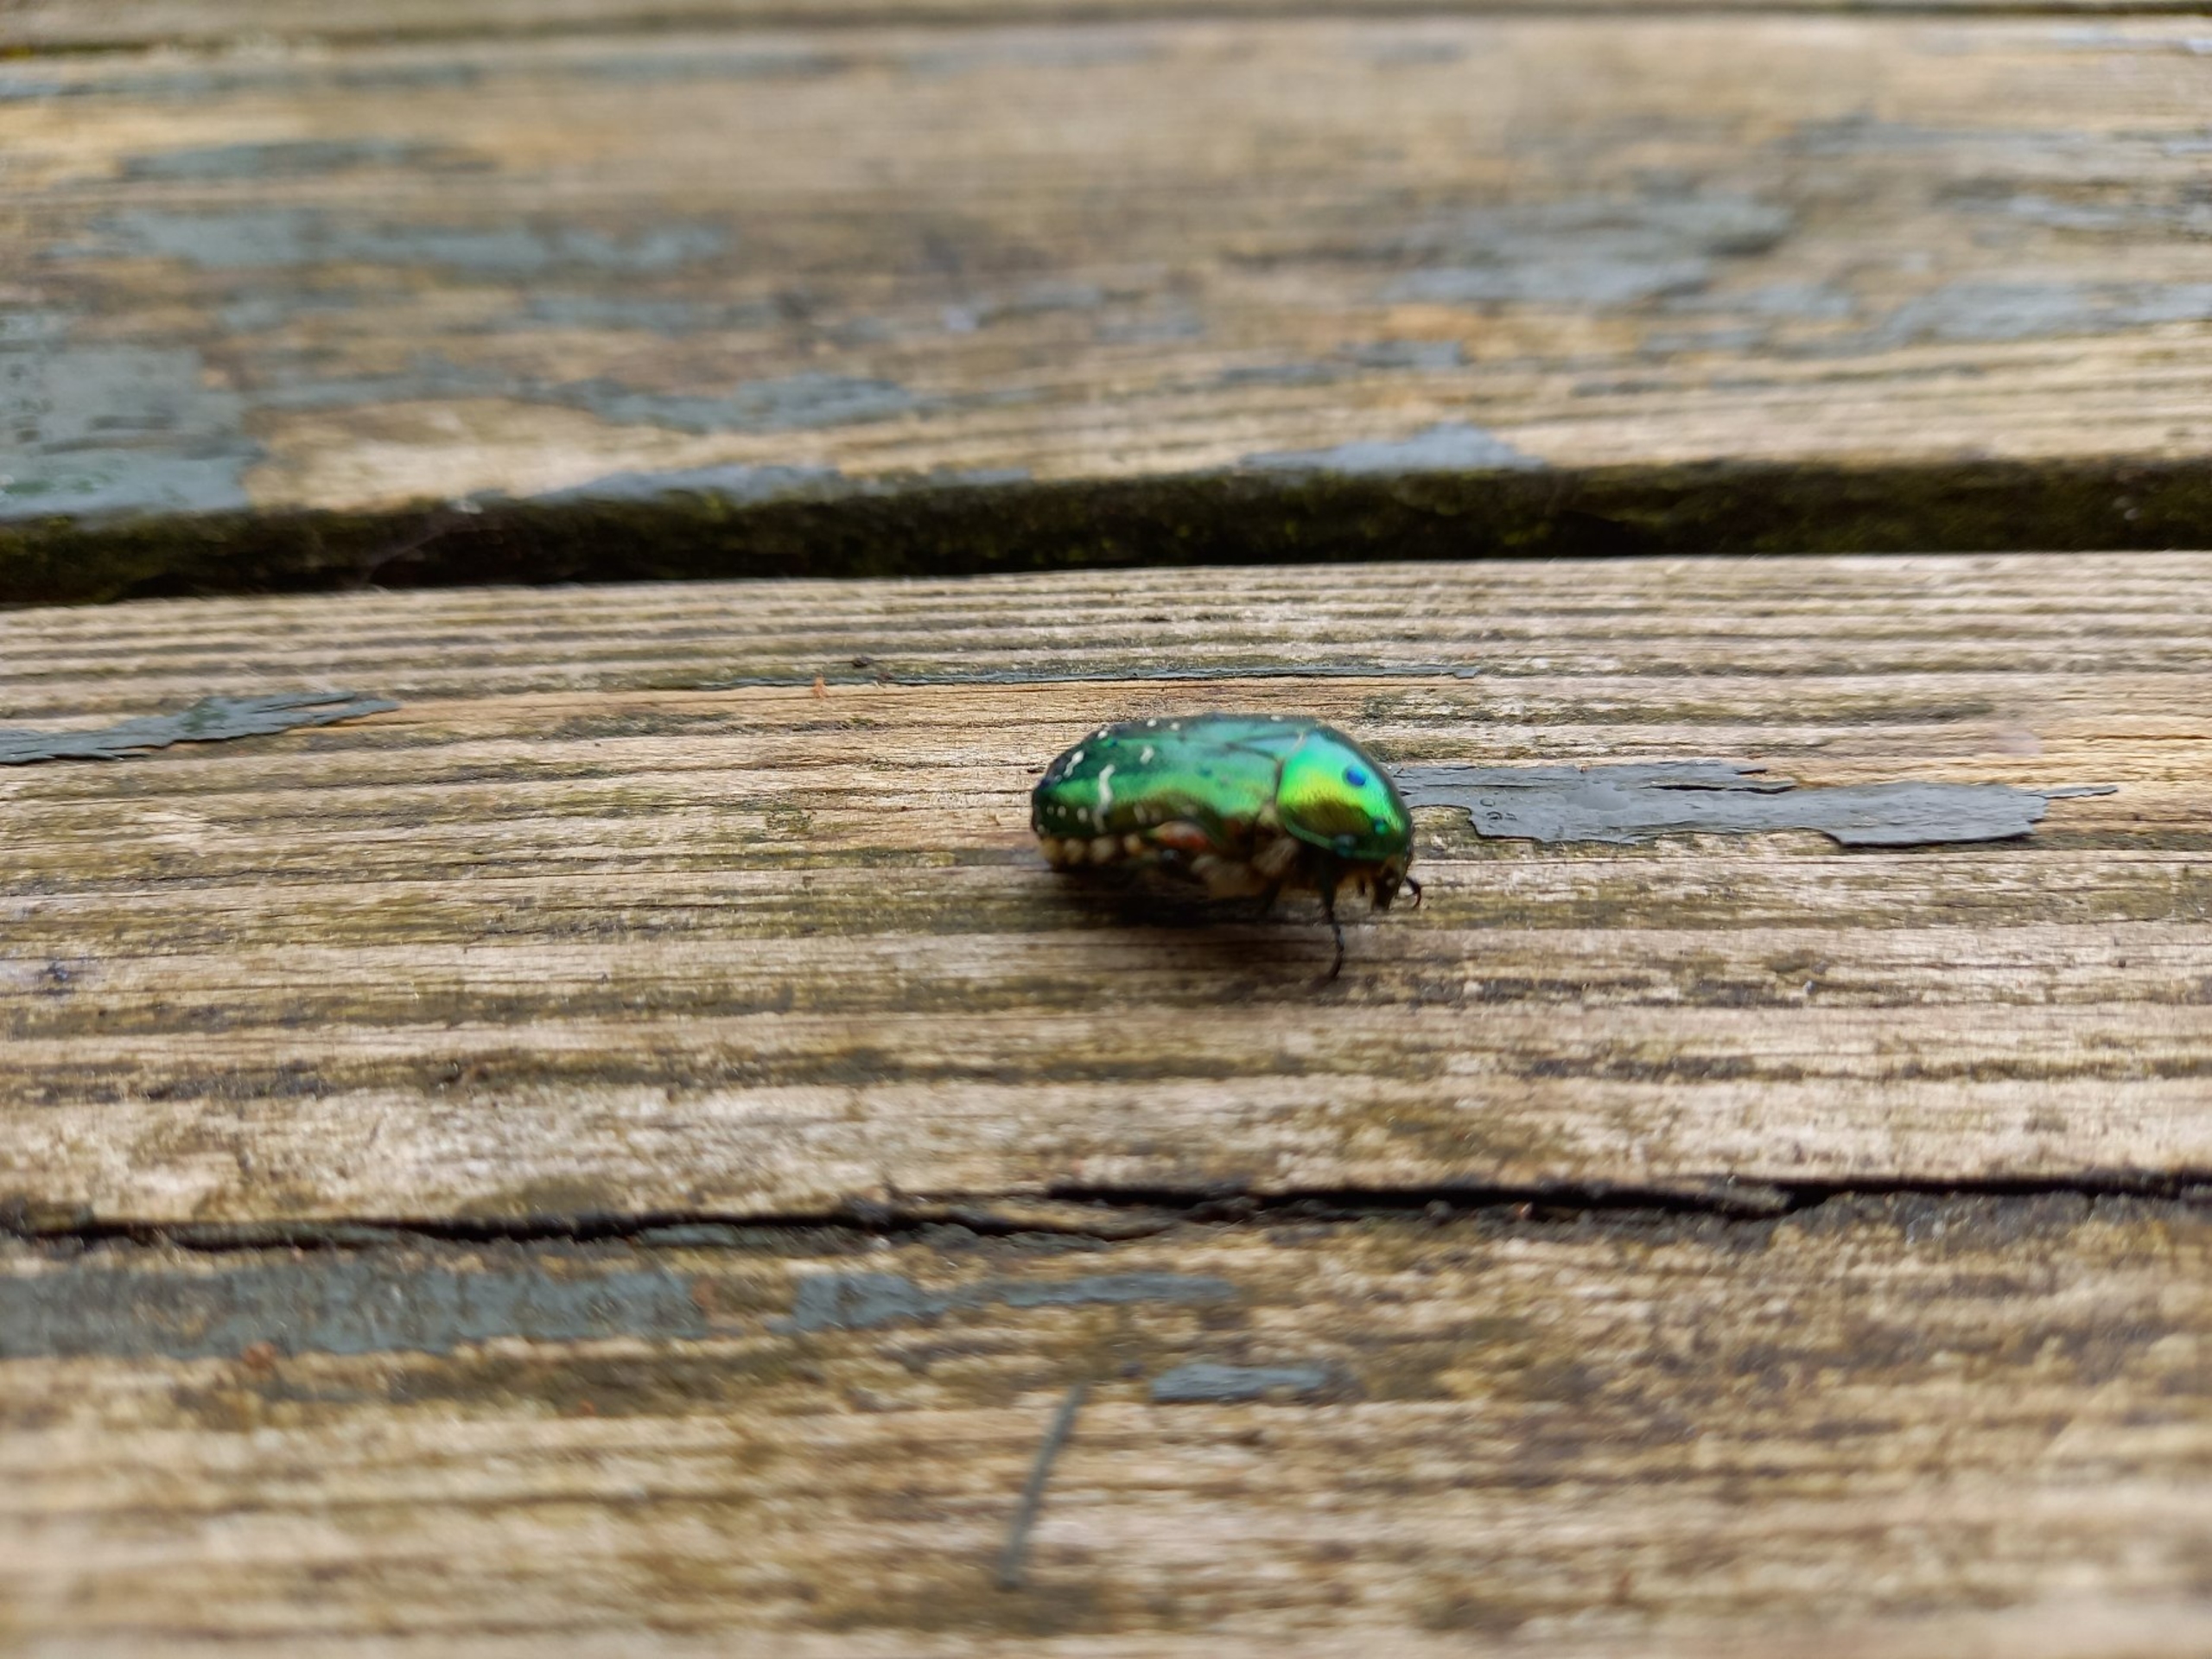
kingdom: Animalia
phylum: Arthropoda
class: Insecta
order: Coleoptera
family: Scarabaeidae
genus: Cetonia
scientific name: Cetonia aurata
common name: Grøn guldbasse
